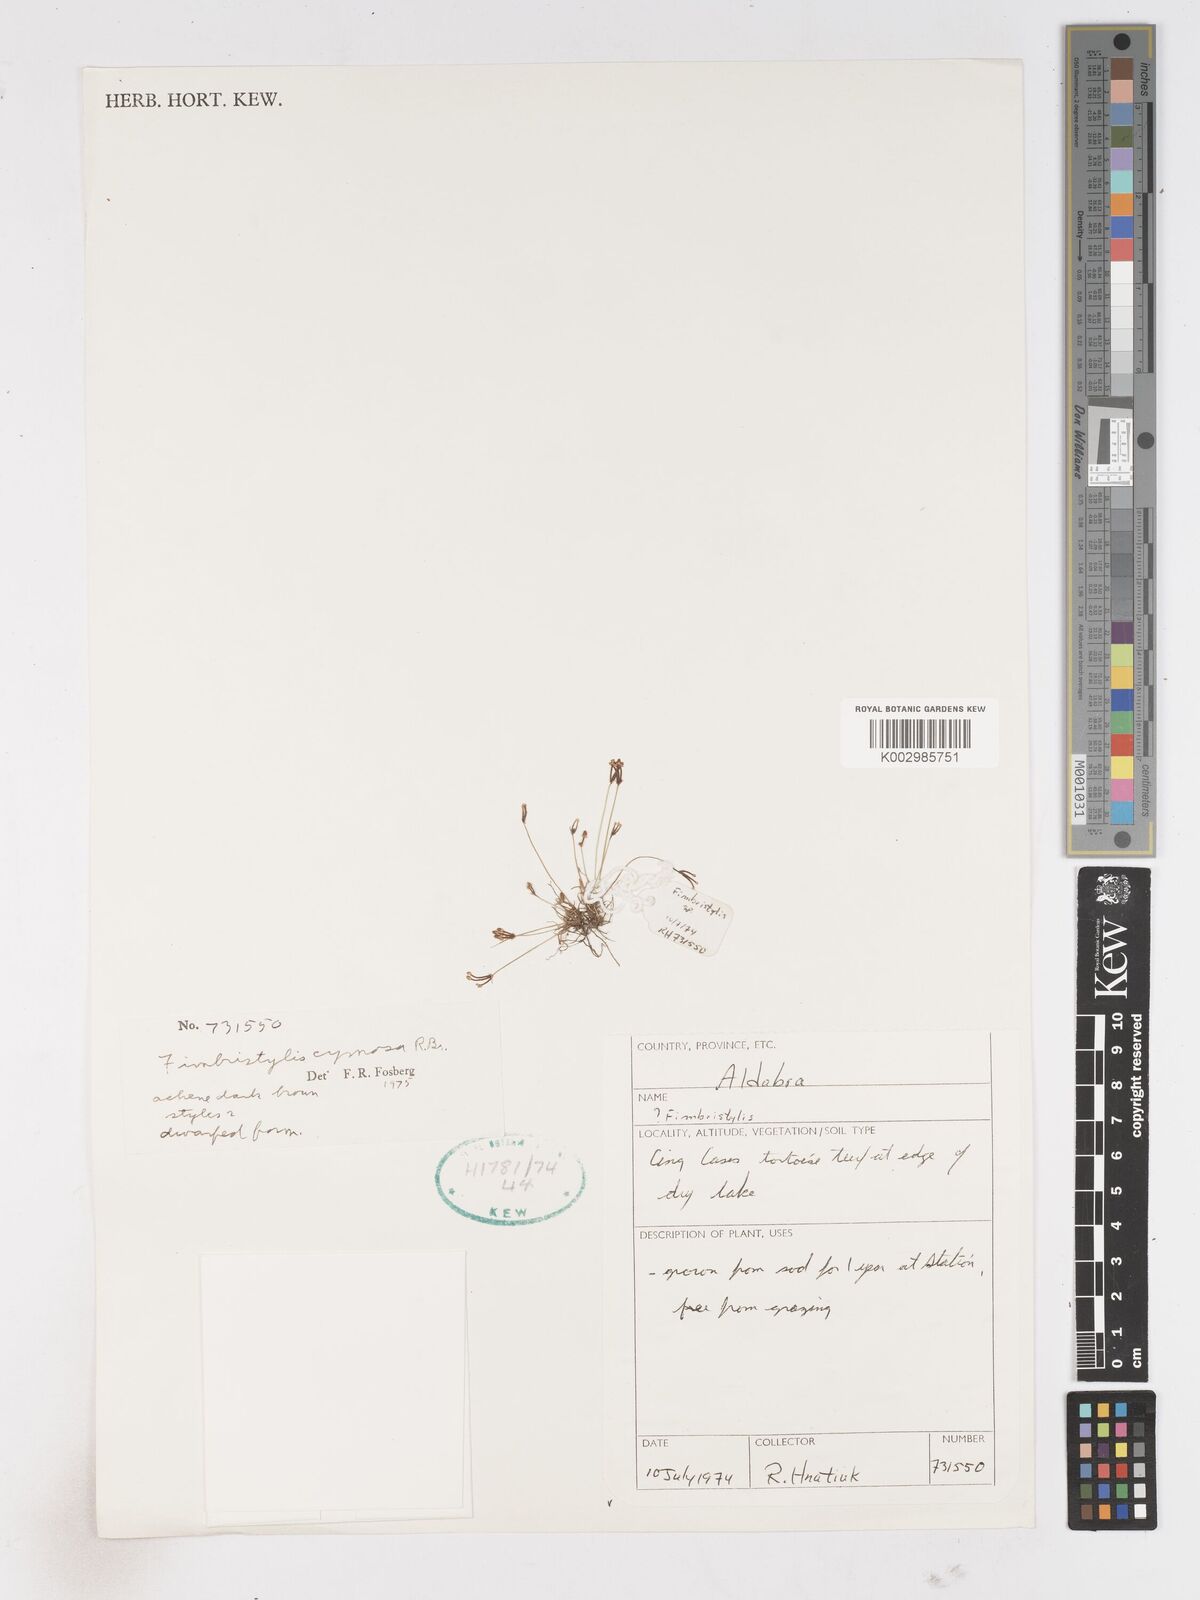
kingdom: Plantae
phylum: Tracheophyta
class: Liliopsida
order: Poales
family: Cyperaceae
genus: Fimbristylis
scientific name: Fimbristylis cymosa
